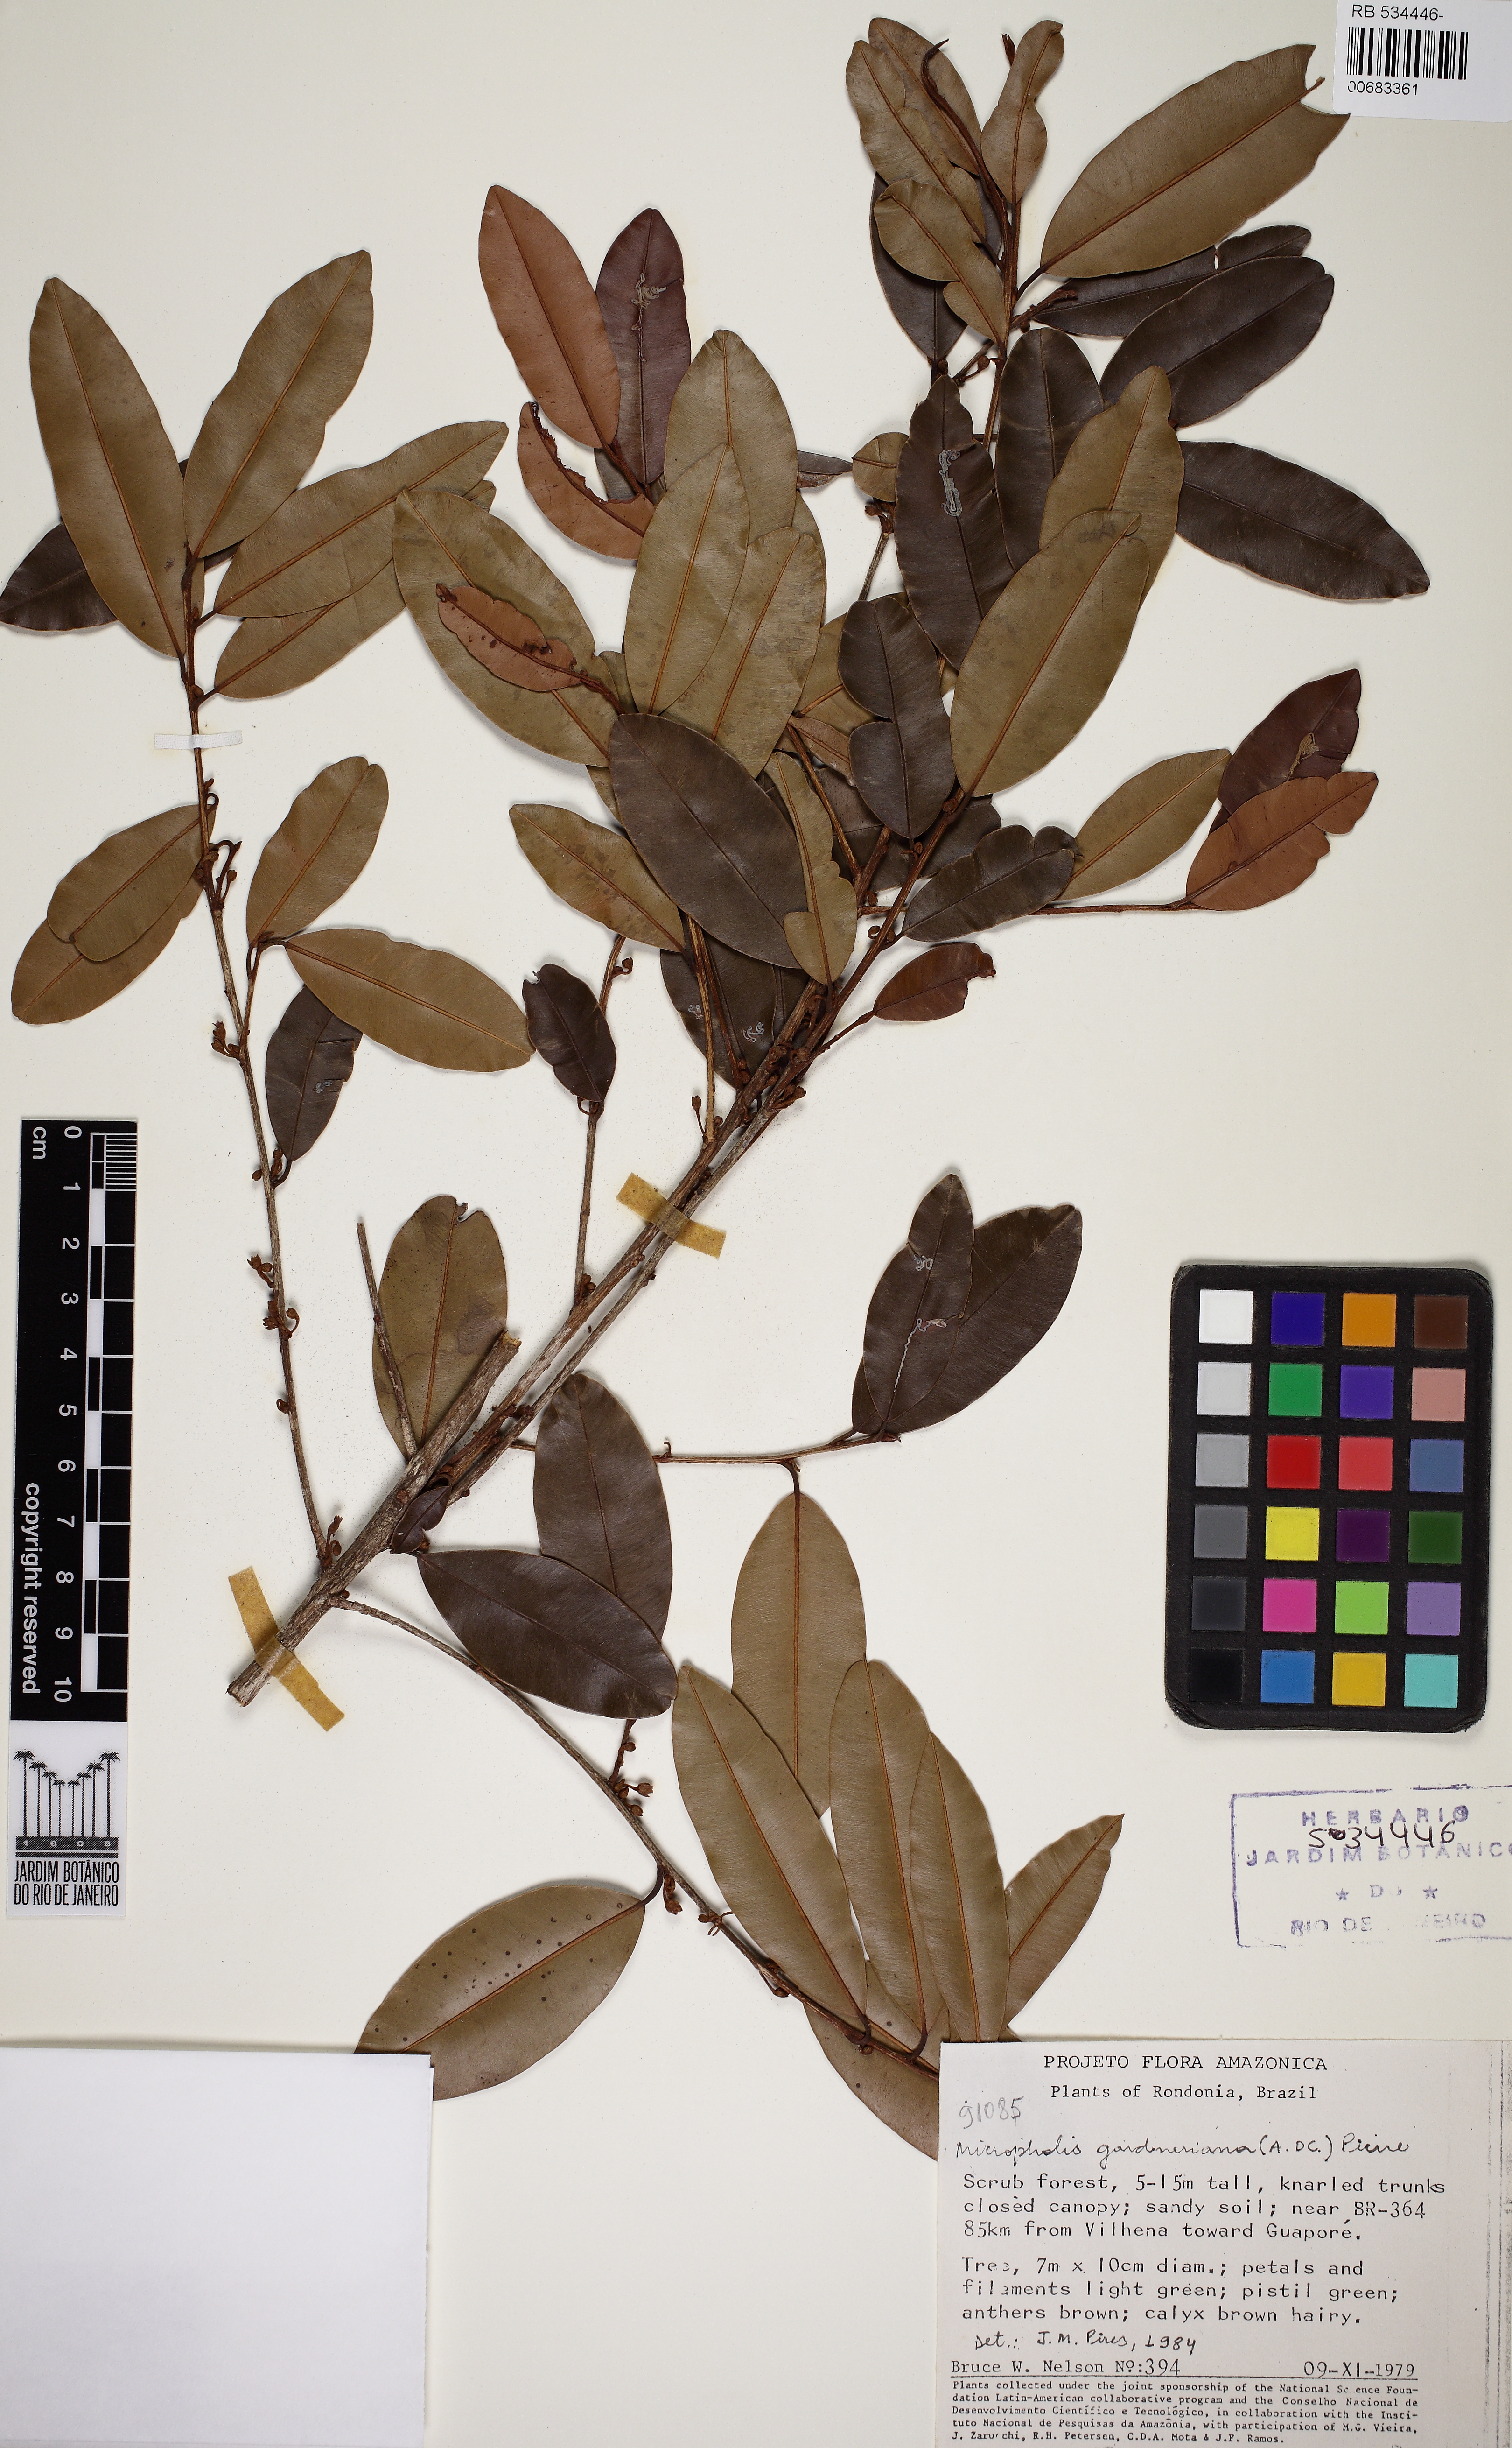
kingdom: Plantae
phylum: Tracheophyta
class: Magnoliopsida
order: Ericales
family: Sapotaceae
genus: Micropholis
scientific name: Micropholis gardneriana
